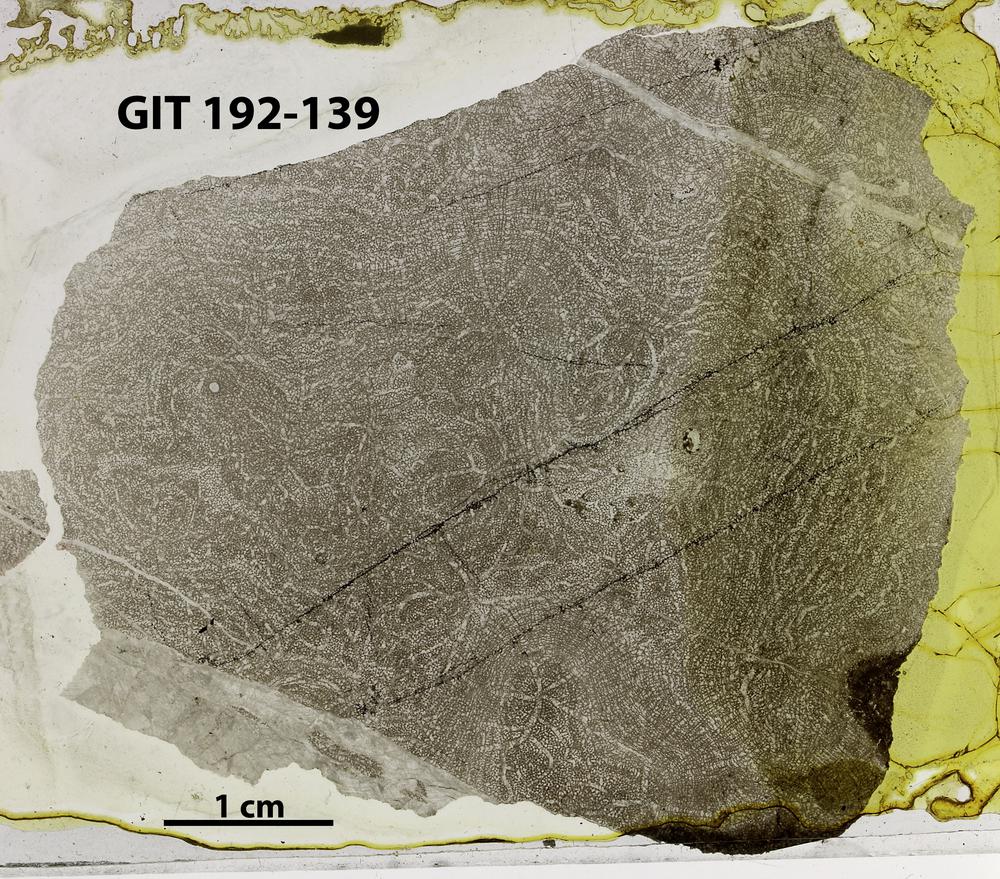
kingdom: Animalia
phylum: Porifera
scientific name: Porifera
